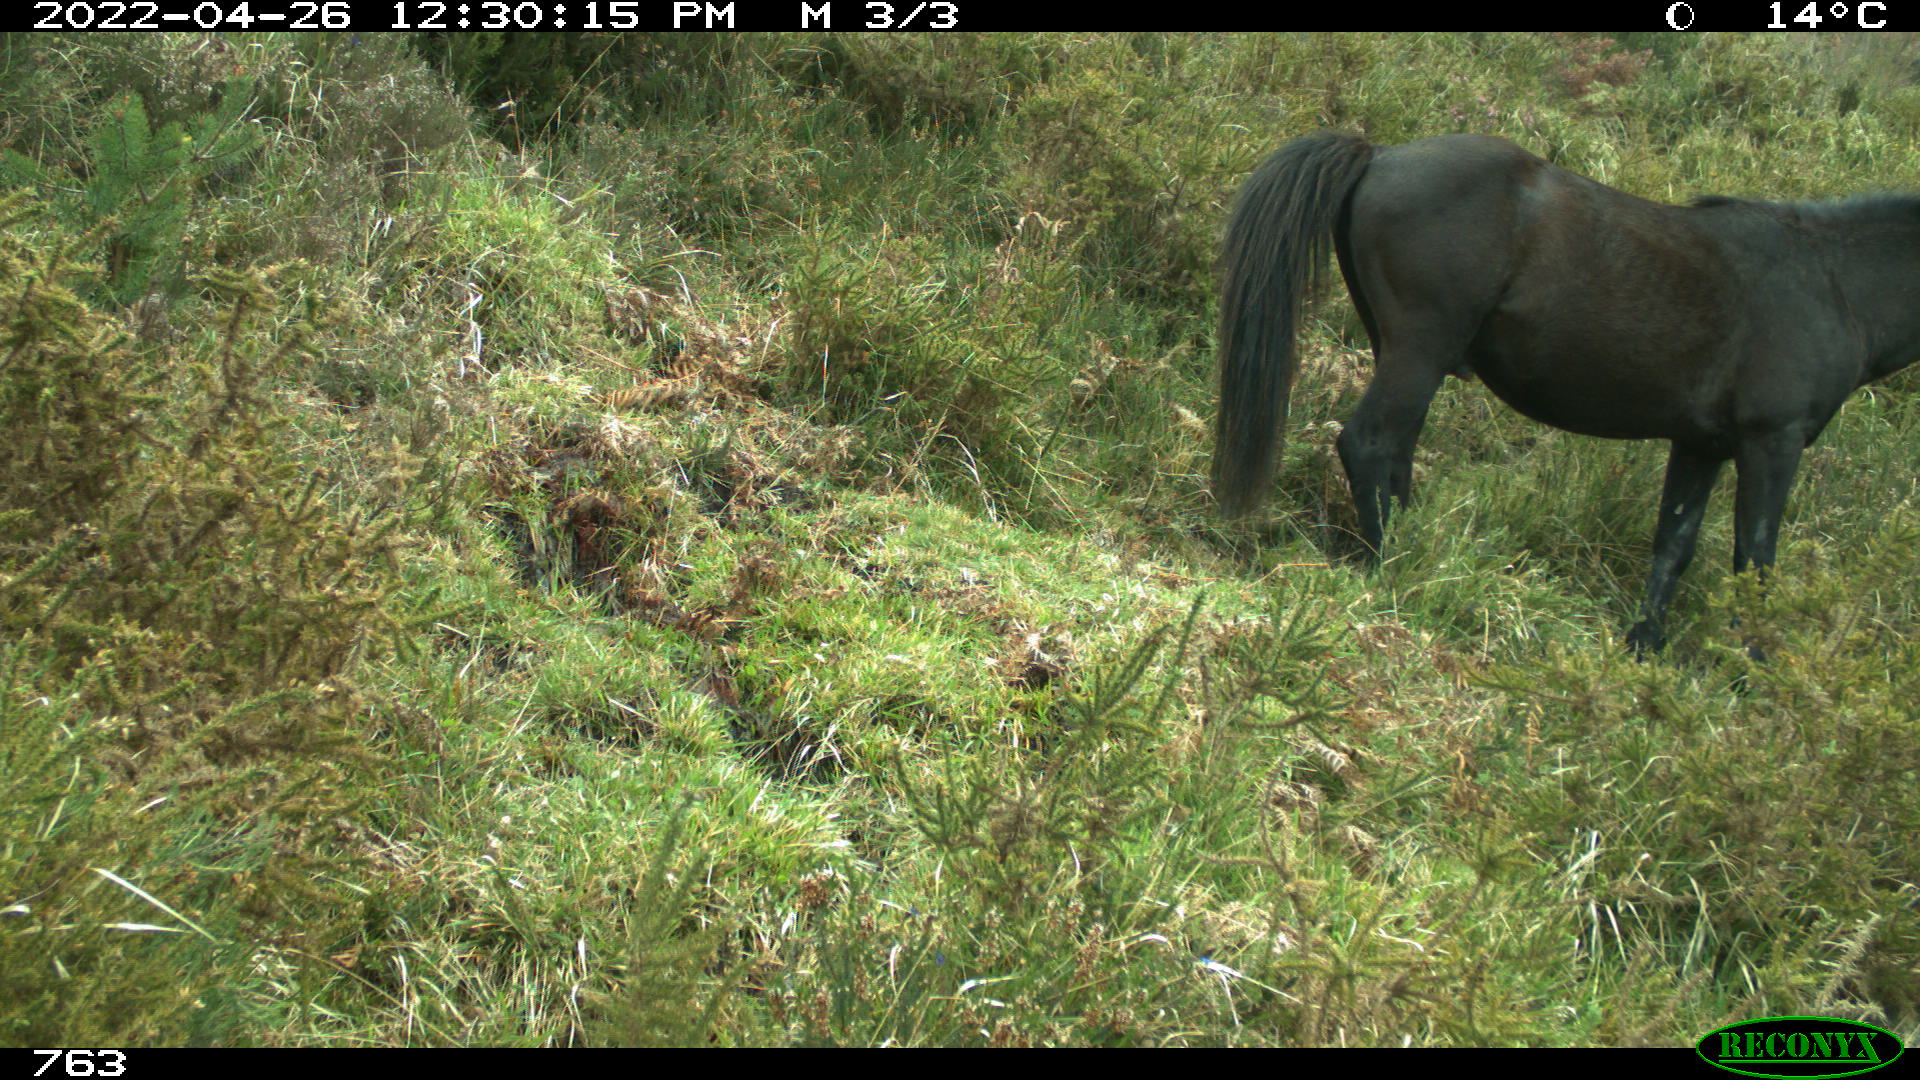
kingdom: Animalia
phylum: Chordata
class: Mammalia
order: Perissodactyla
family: Equidae
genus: Equus
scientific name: Equus caballus
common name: Horse
